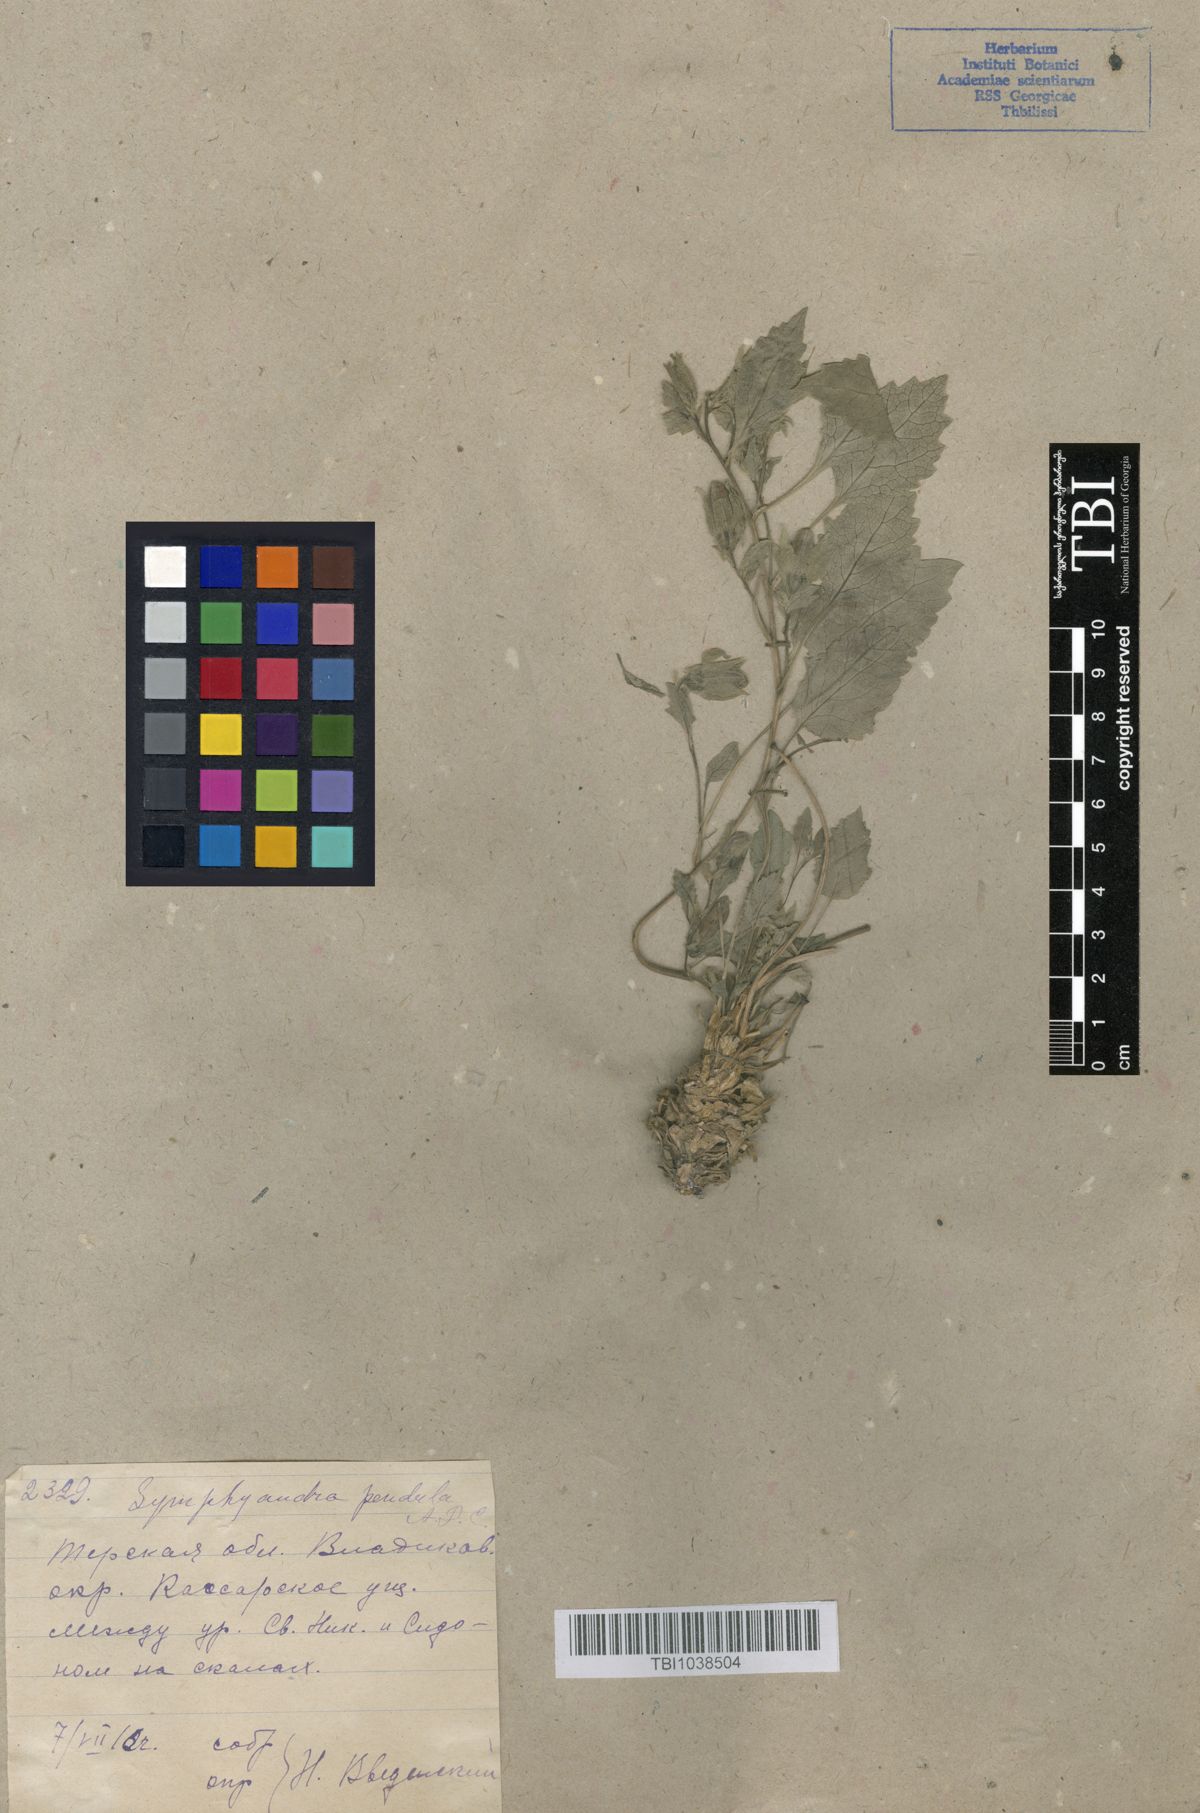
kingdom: Plantae
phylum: Tracheophyta
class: Magnoliopsida
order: Asterales
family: Campanulaceae
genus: Campanula
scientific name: Campanula pendula
